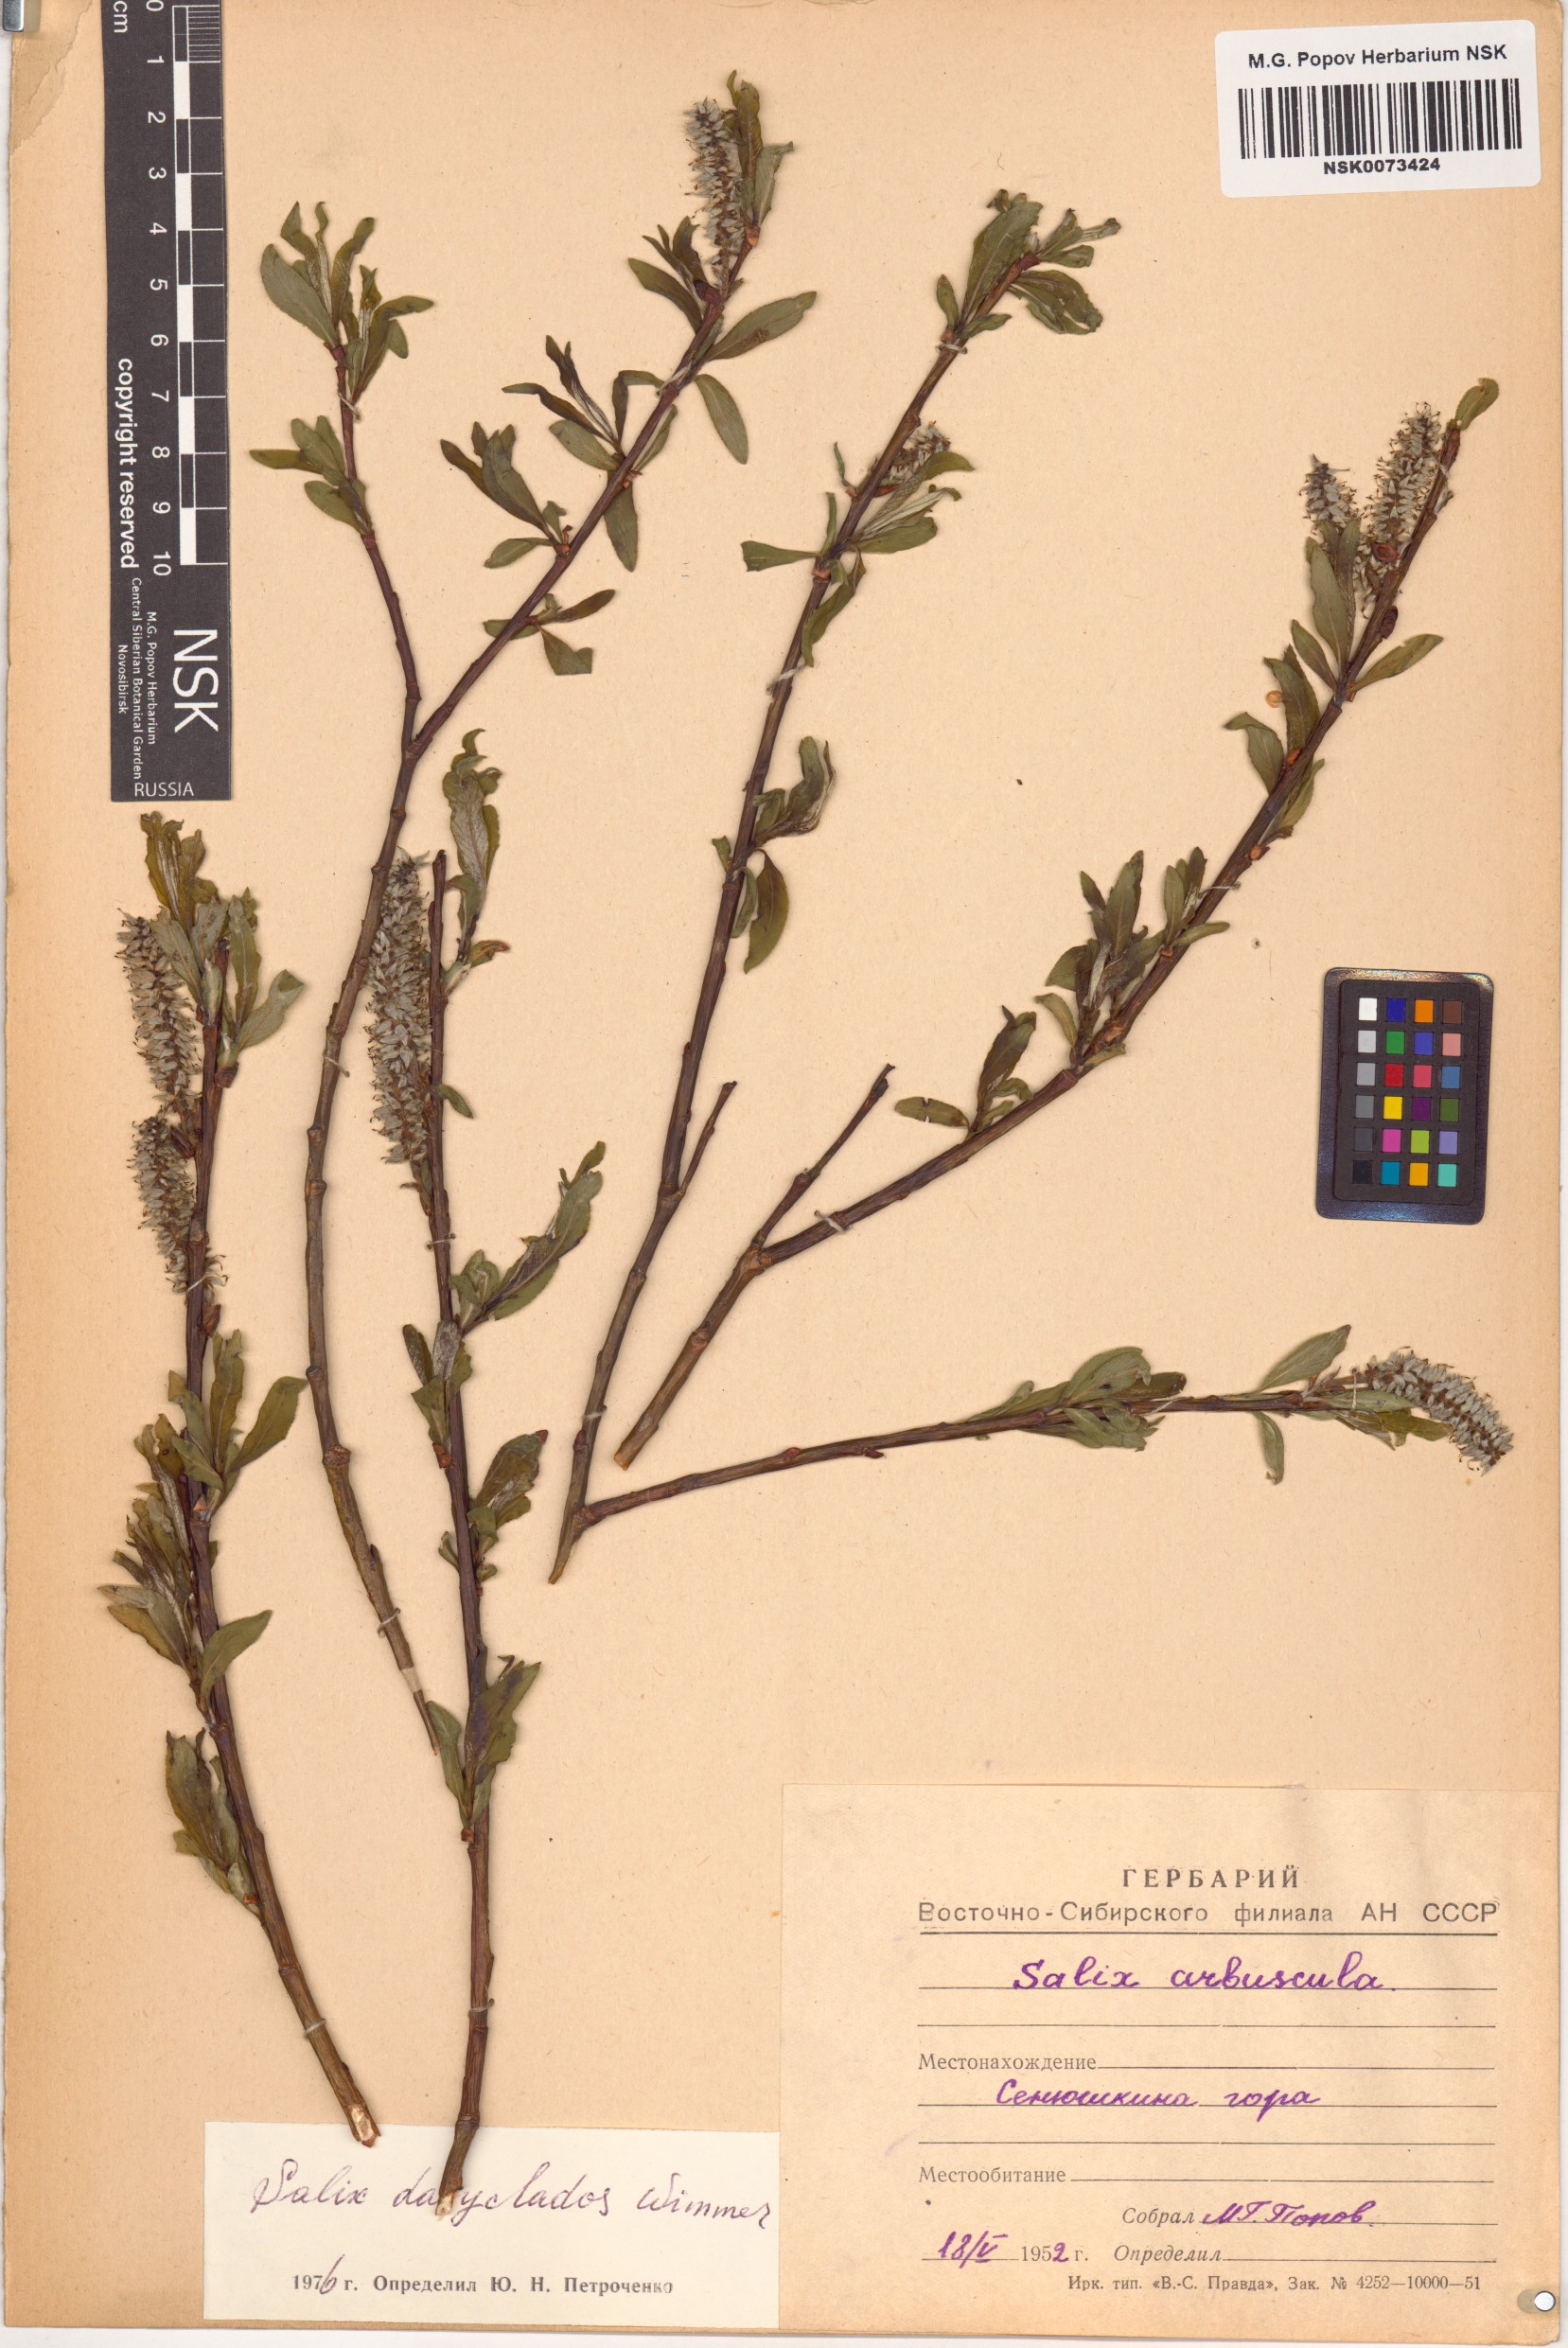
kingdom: Plantae
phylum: Tracheophyta
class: Magnoliopsida
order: Malpighiales
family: Salicaceae
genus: Salix
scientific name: Salix gmelinii
